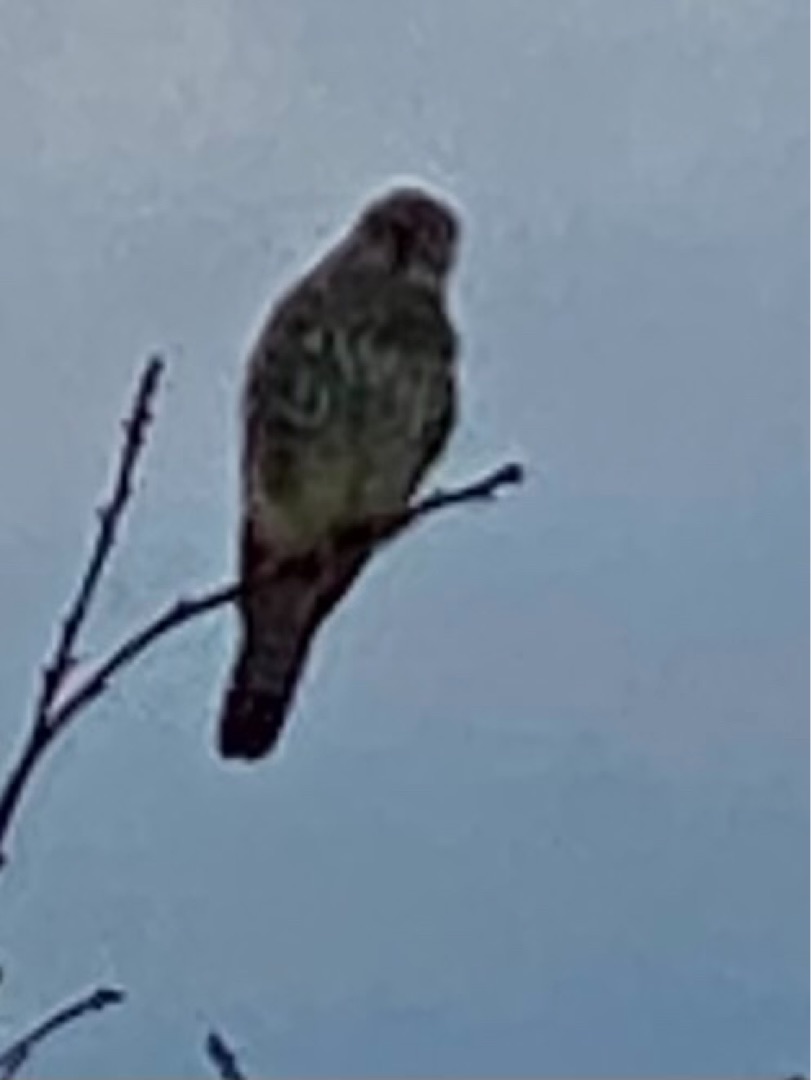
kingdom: Animalia
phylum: Chordata
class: Aves
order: Falconiformes
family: Falconidae
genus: Falco
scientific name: Falco tinnunculus
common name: Tårnfalk
